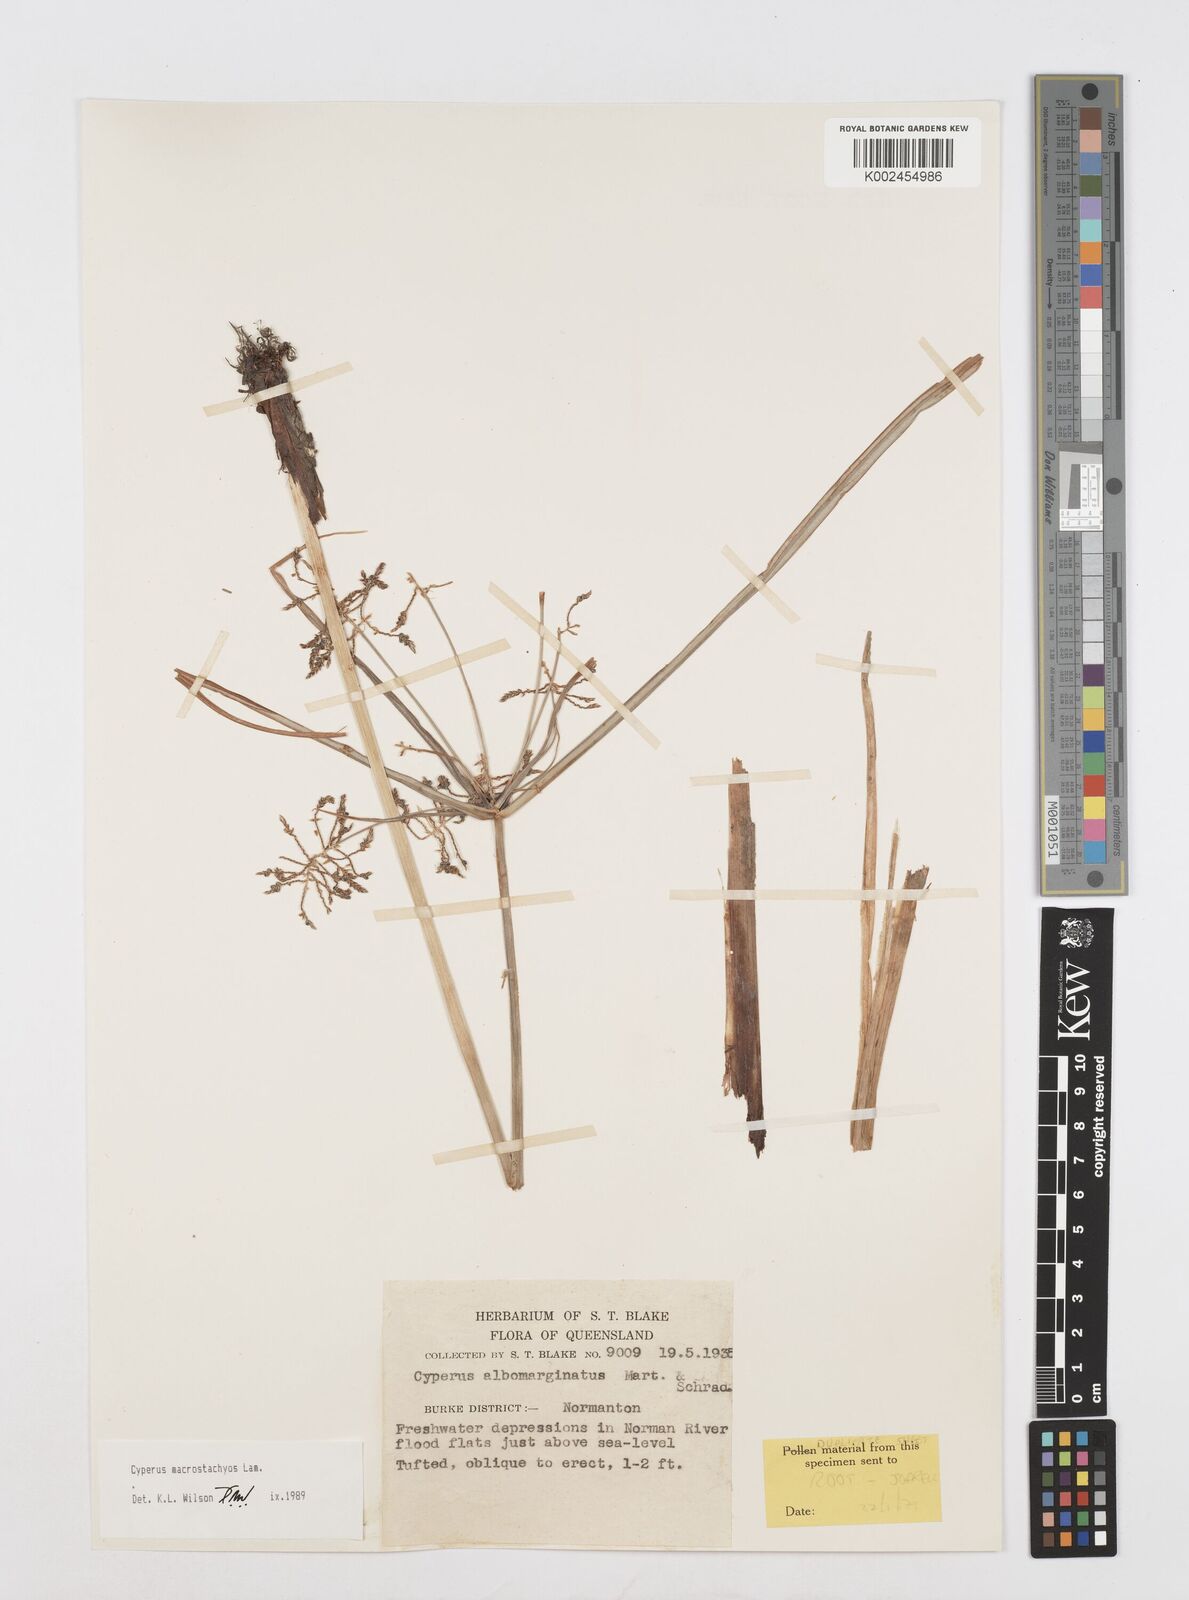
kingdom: Plantae
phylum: Tracheophyta
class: Liliopsida
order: Poales
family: Cyperaceae
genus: Cyperus
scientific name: Cyperus macrostachyos
